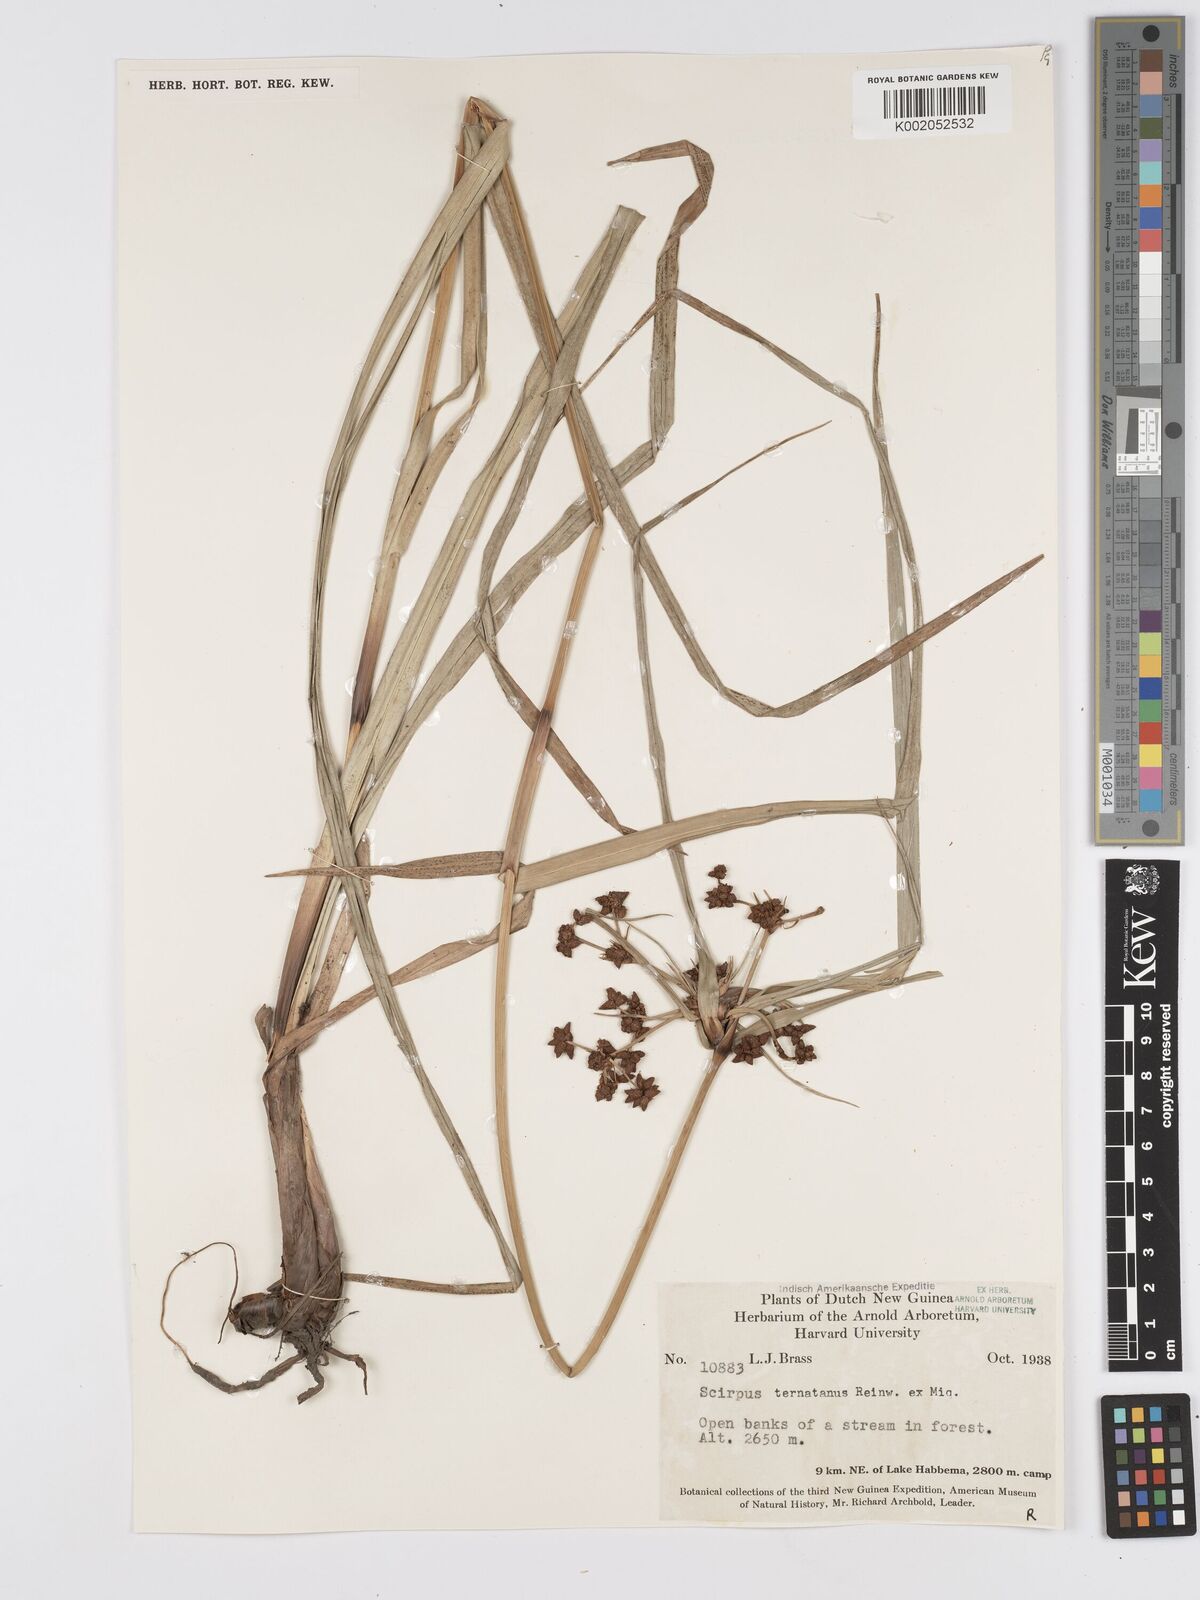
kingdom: Plantae
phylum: Tracheophyta
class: Liliopsida
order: Poales
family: Cyperaceae
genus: Scirpus
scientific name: Scirpus ternatanus
